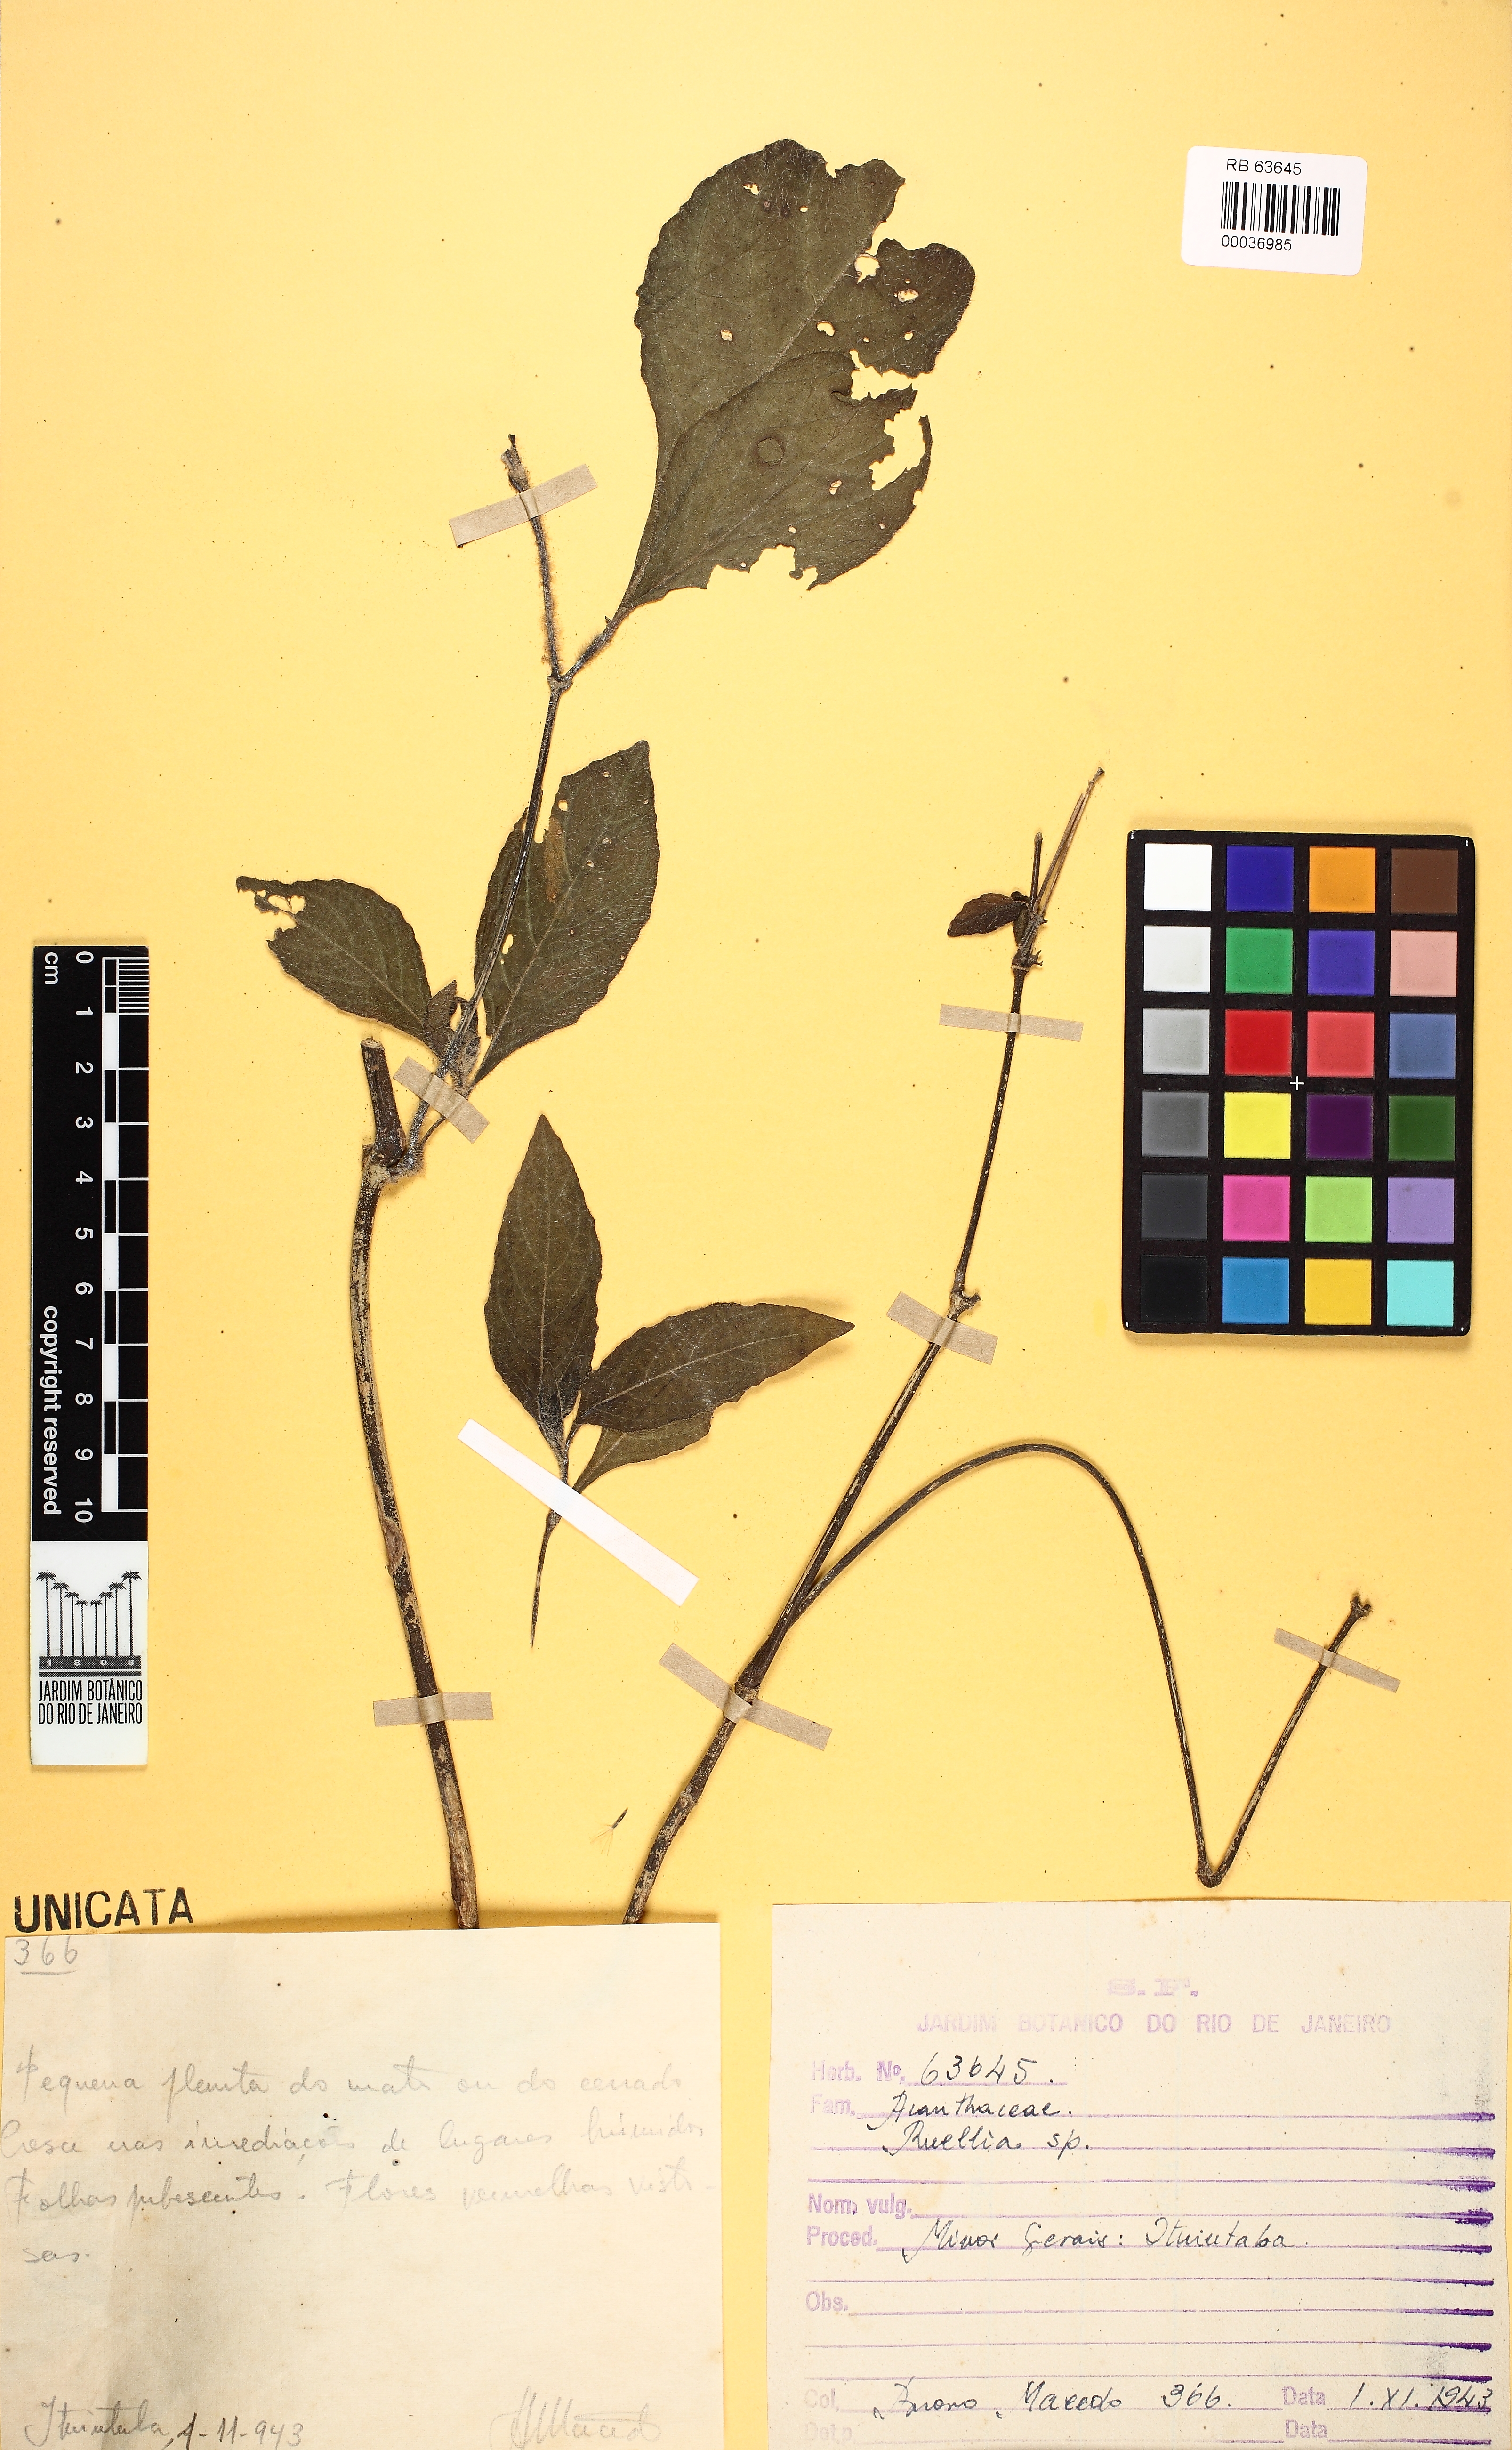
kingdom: Plantae
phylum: Tracheophyta
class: Magnoliopsida
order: Lamiales
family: Acanthaceae
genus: Ruellia
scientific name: Ruellia
